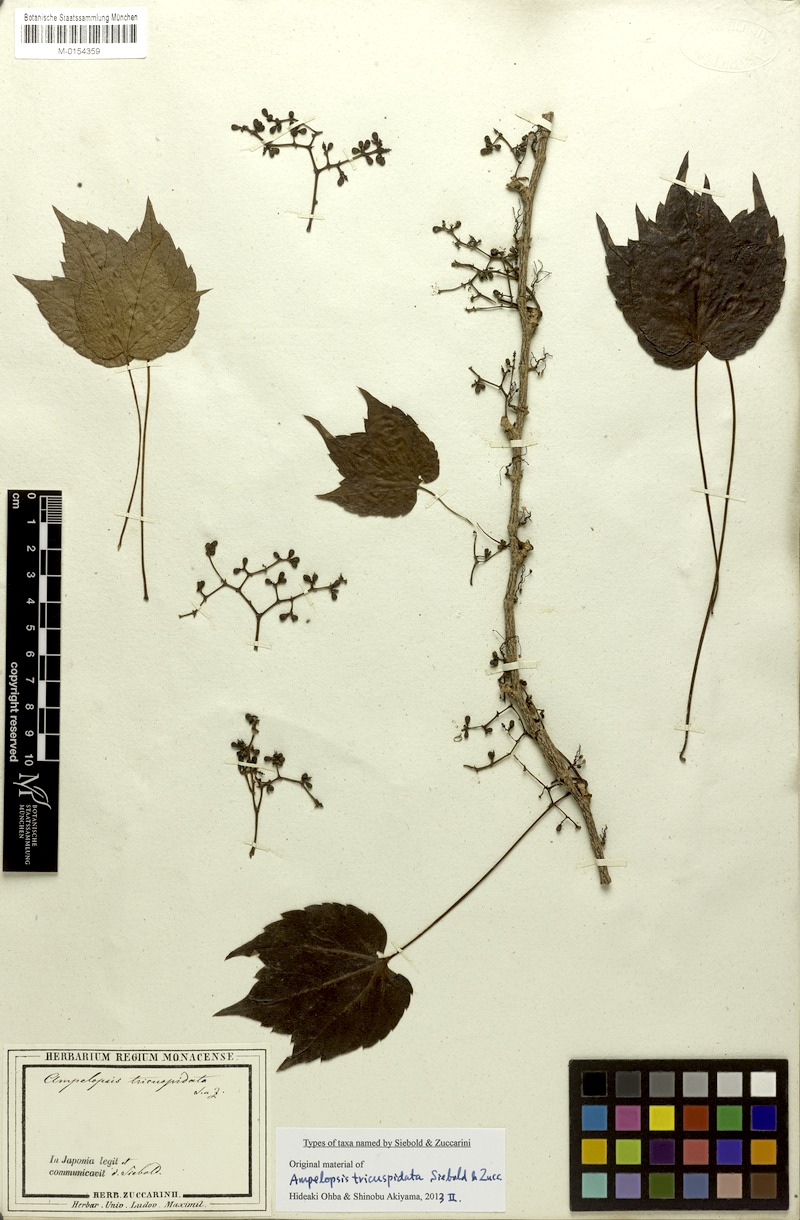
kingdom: Plantae
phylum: Tracheophyta
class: Magnoliopsida
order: Vitales
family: Vitaceae
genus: Parthenocissus
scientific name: Parthenocissus tricuspidata
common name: Boston ivy
